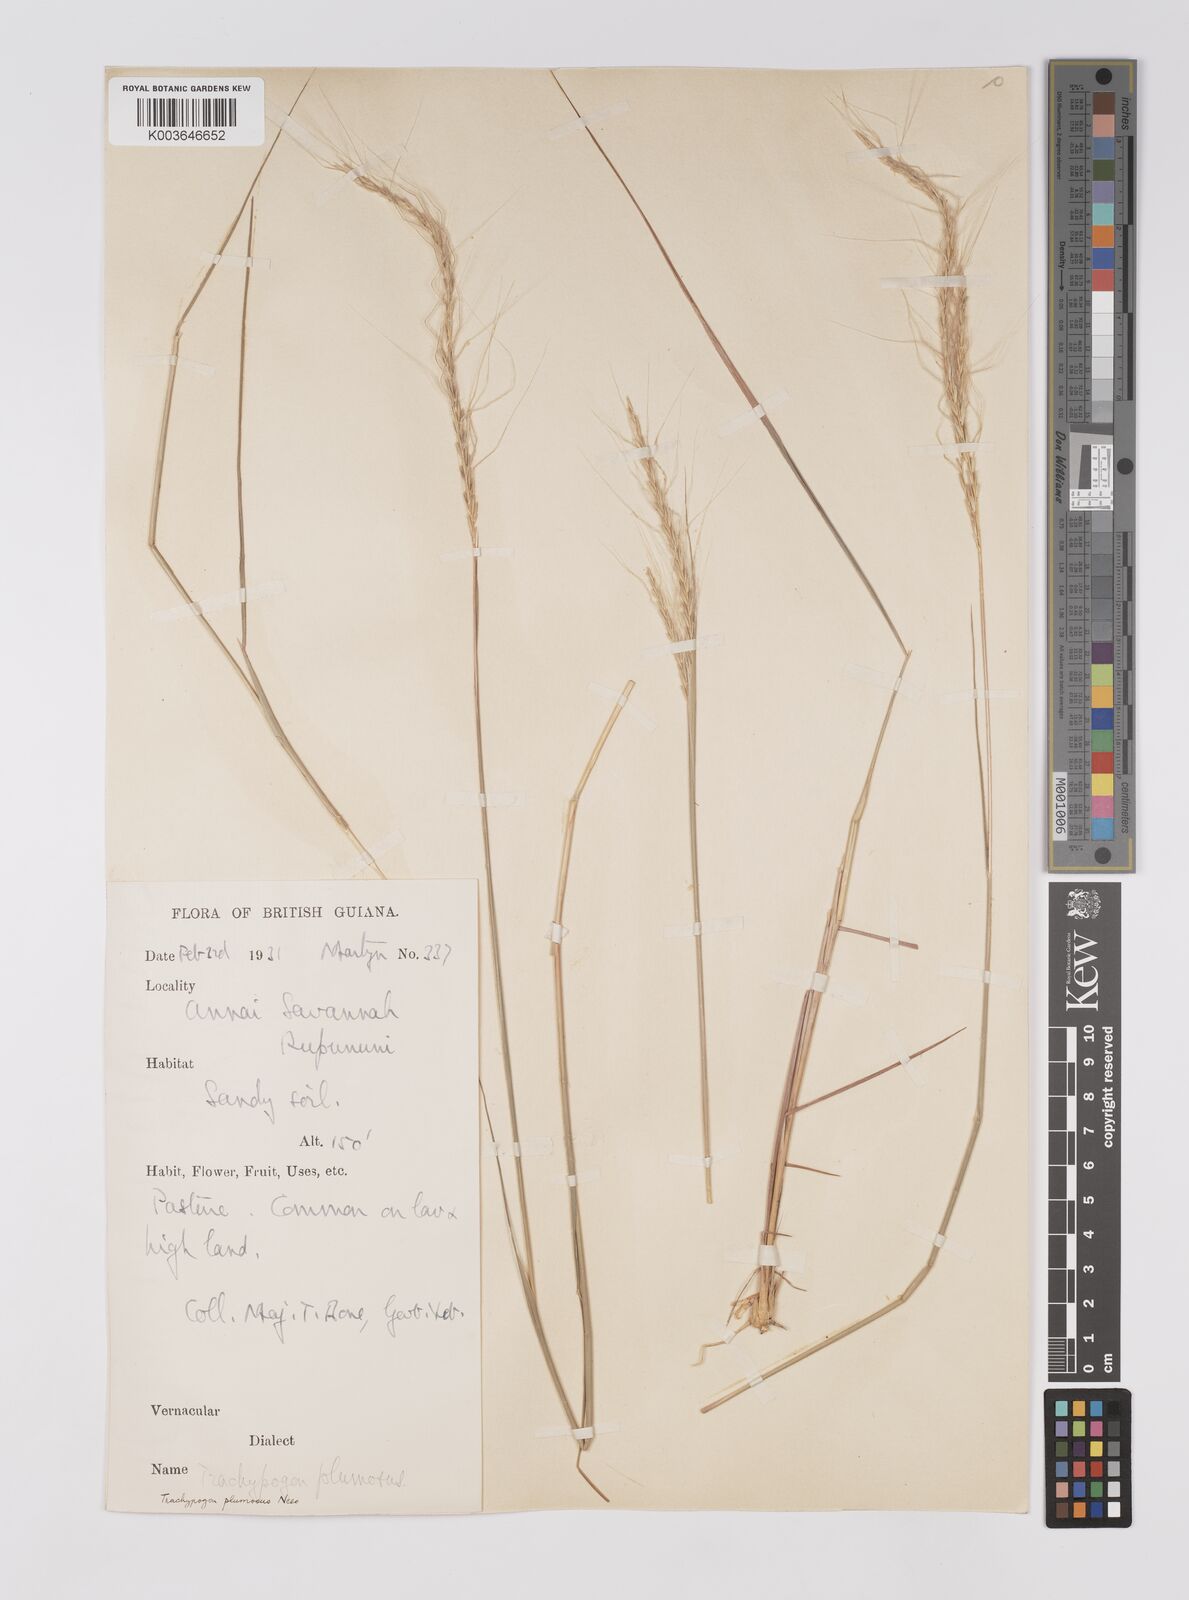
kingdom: Plantae
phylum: Tracheophyta
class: Liliopsida
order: Poales
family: Poaceae
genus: Trachypogon
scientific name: Trachypogon spicatus
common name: Crinkle-awn
